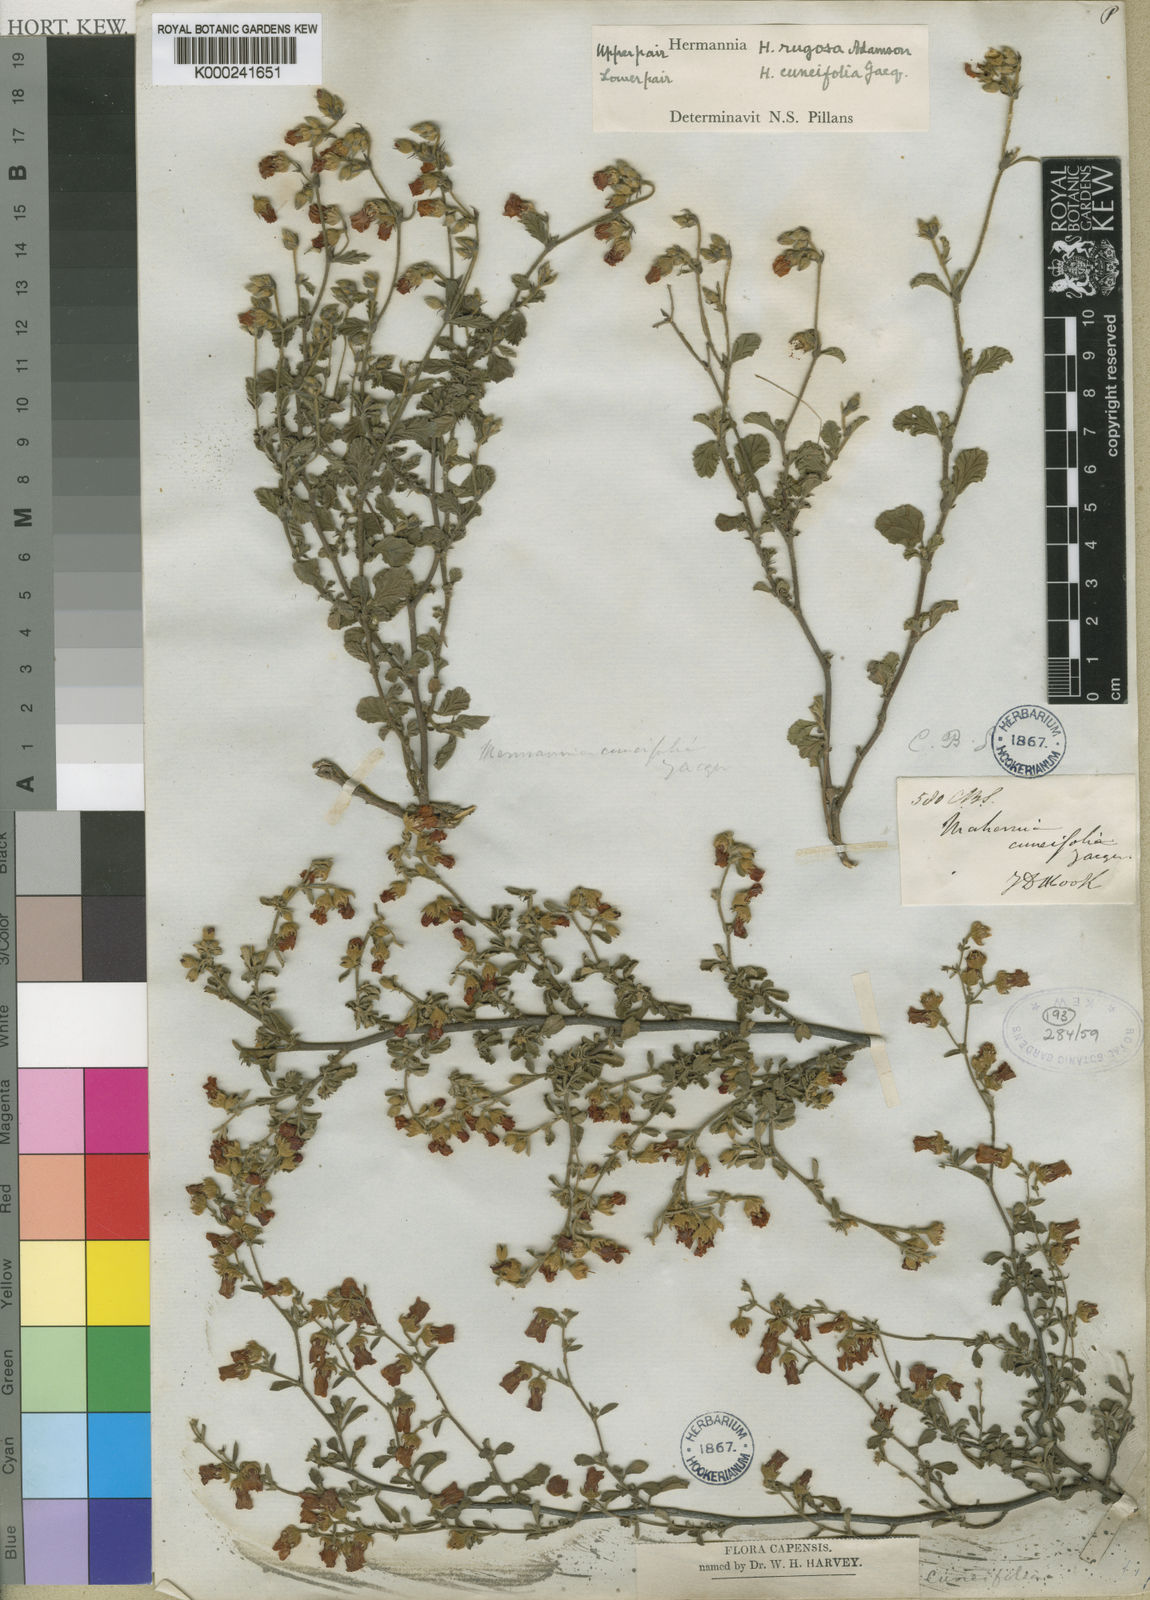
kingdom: Plantae
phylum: Tracheophyta
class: Magnoliopsida
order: Malvales
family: Malvaceae
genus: Hermannia
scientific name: Hermannia rugosa
